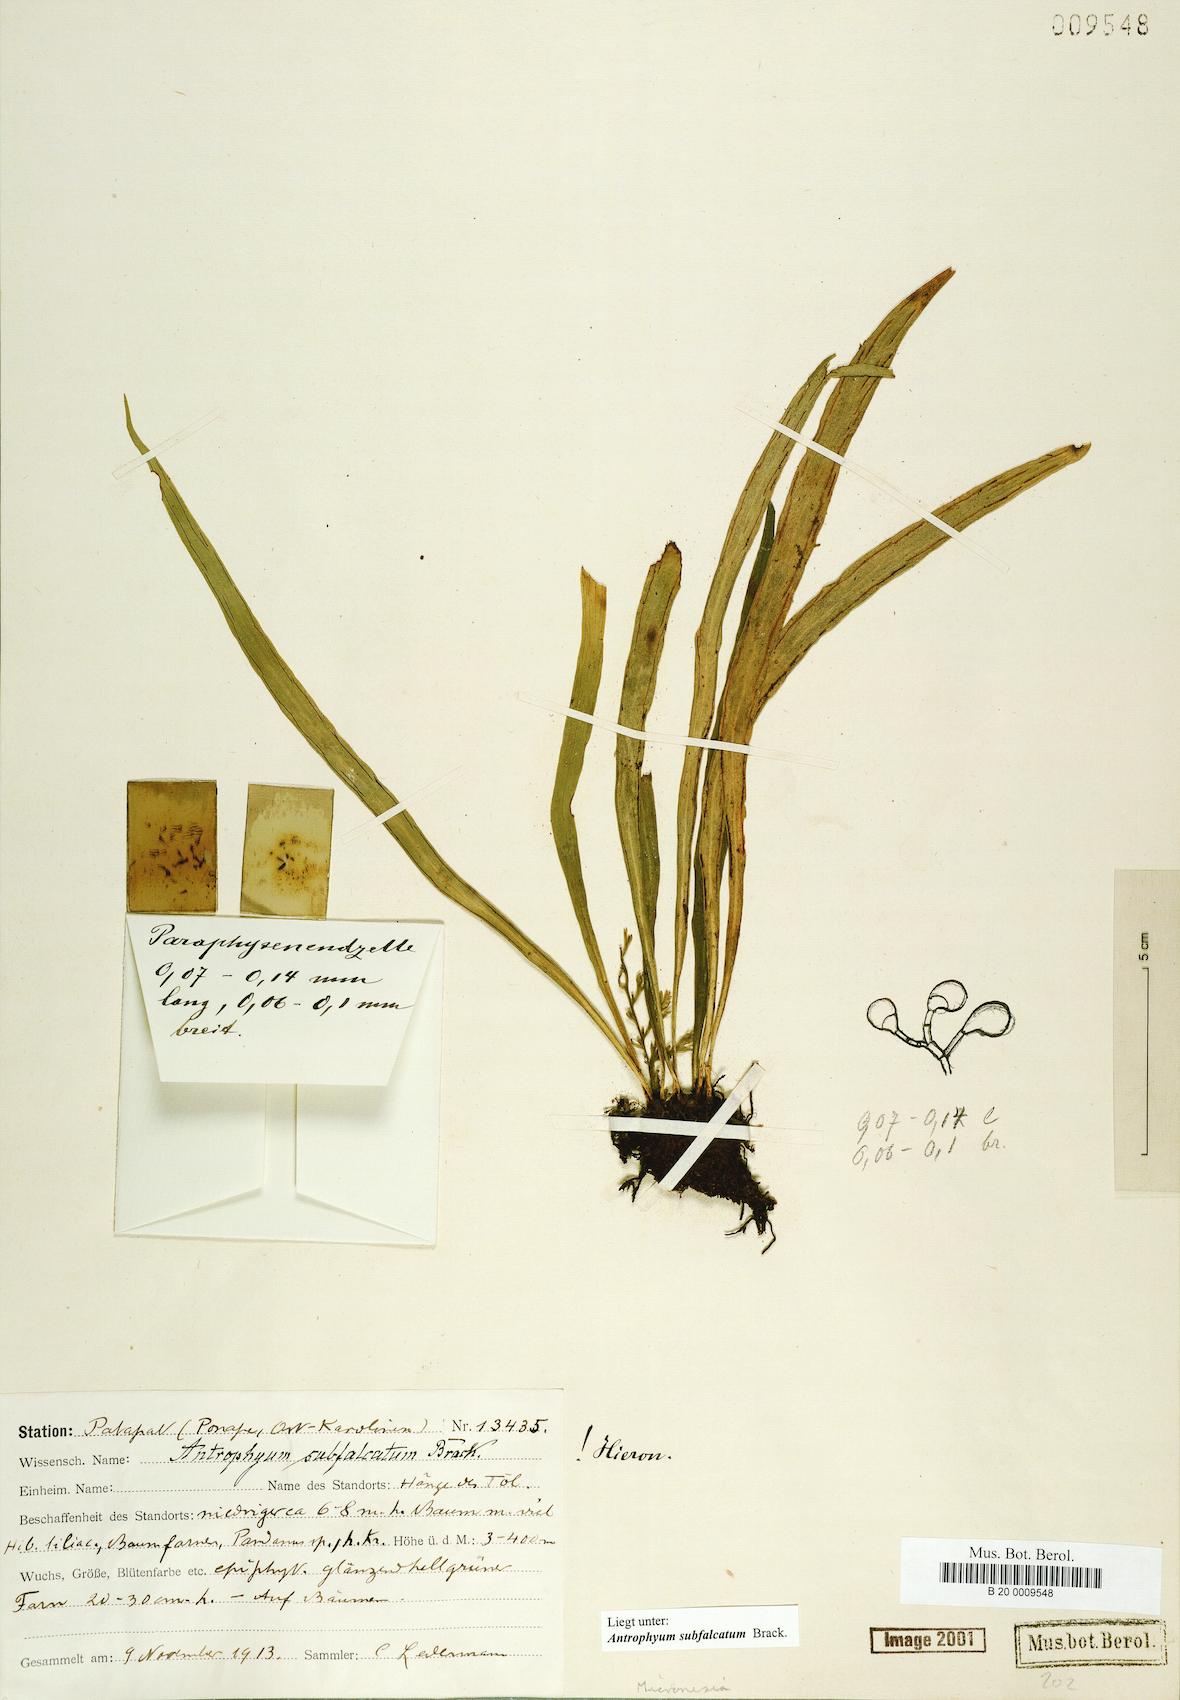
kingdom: Plantae
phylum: Tracheophyta
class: Polypodiopsida
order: Polypodiales
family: Pteridaceae
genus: Antrophyum
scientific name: Antrophyum subfalcatum
